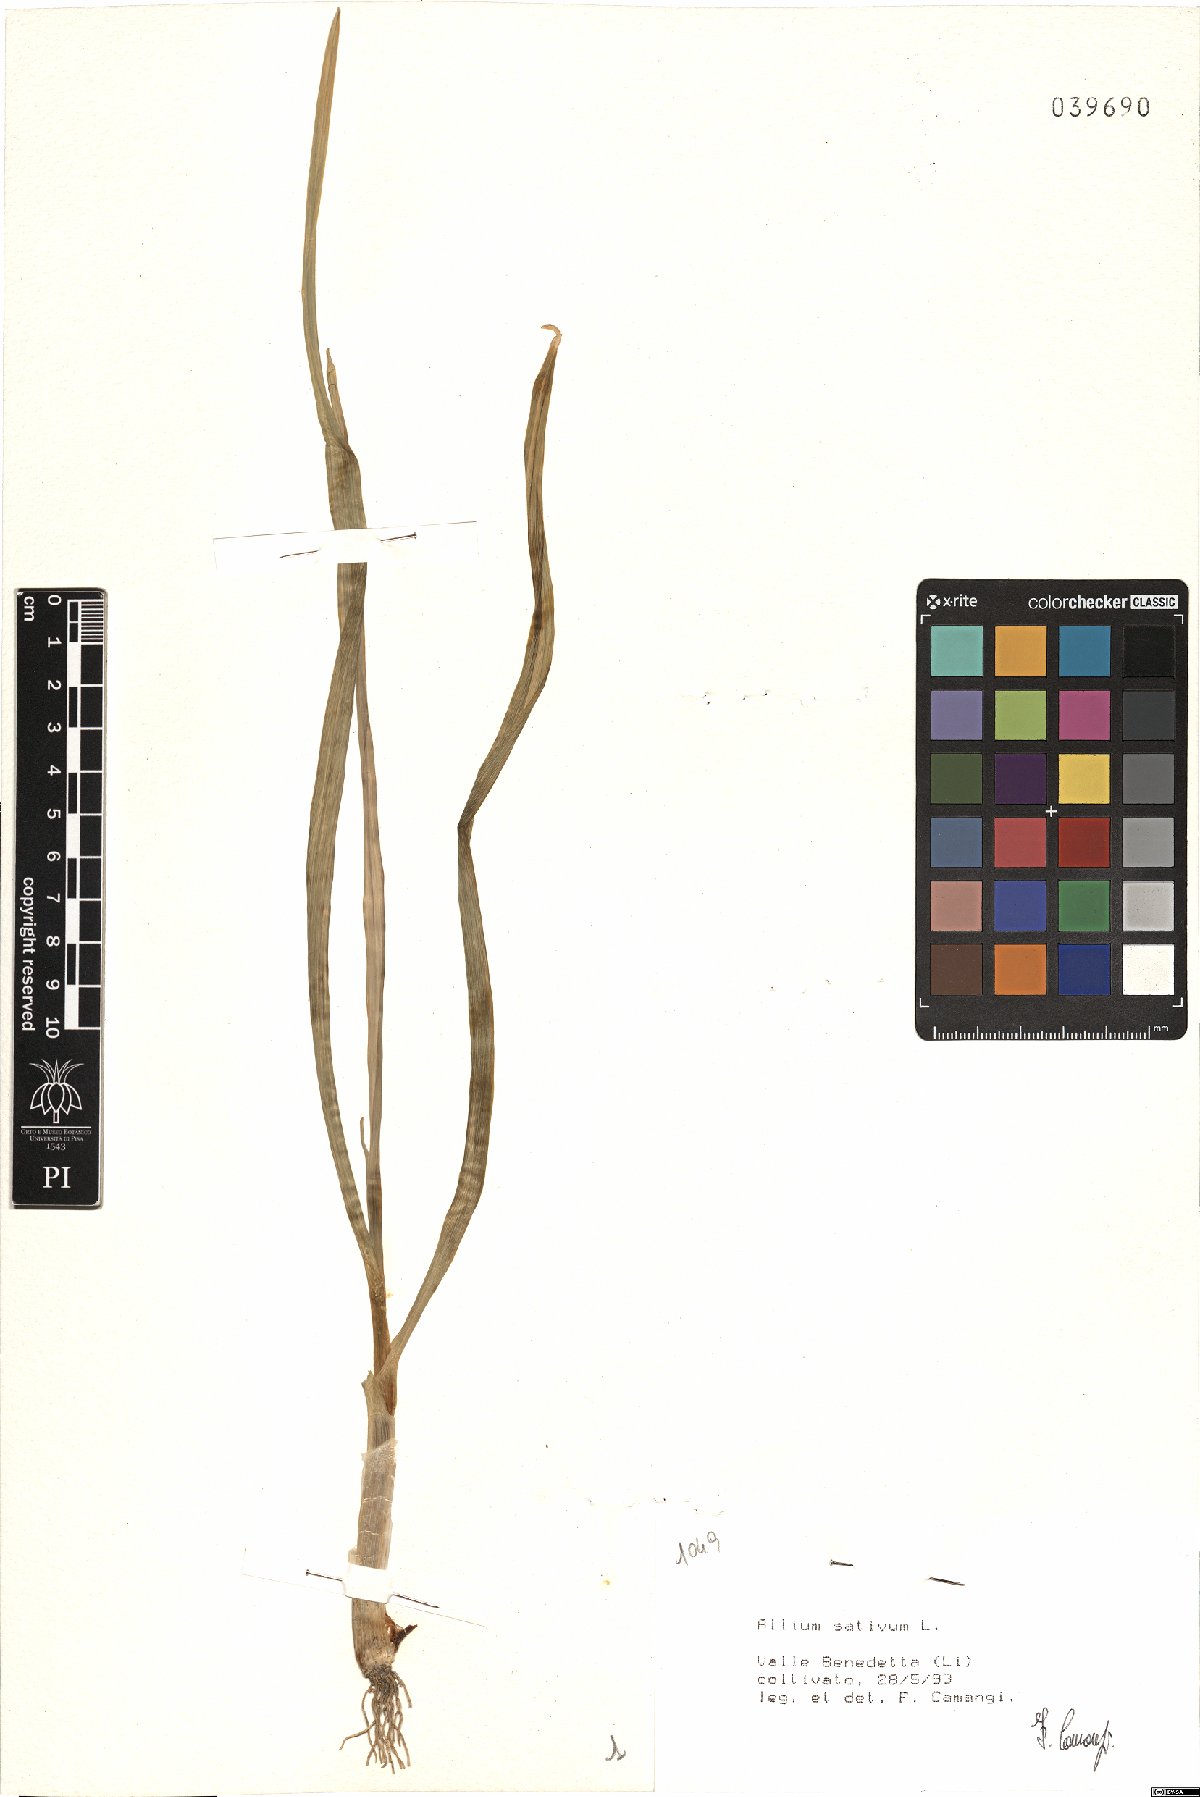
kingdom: Plantae
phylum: Tracheophyta
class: Liliopsida
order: Asparagales
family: Amaryllidaceae
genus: Allium
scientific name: Allium sativum
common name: Garlic
